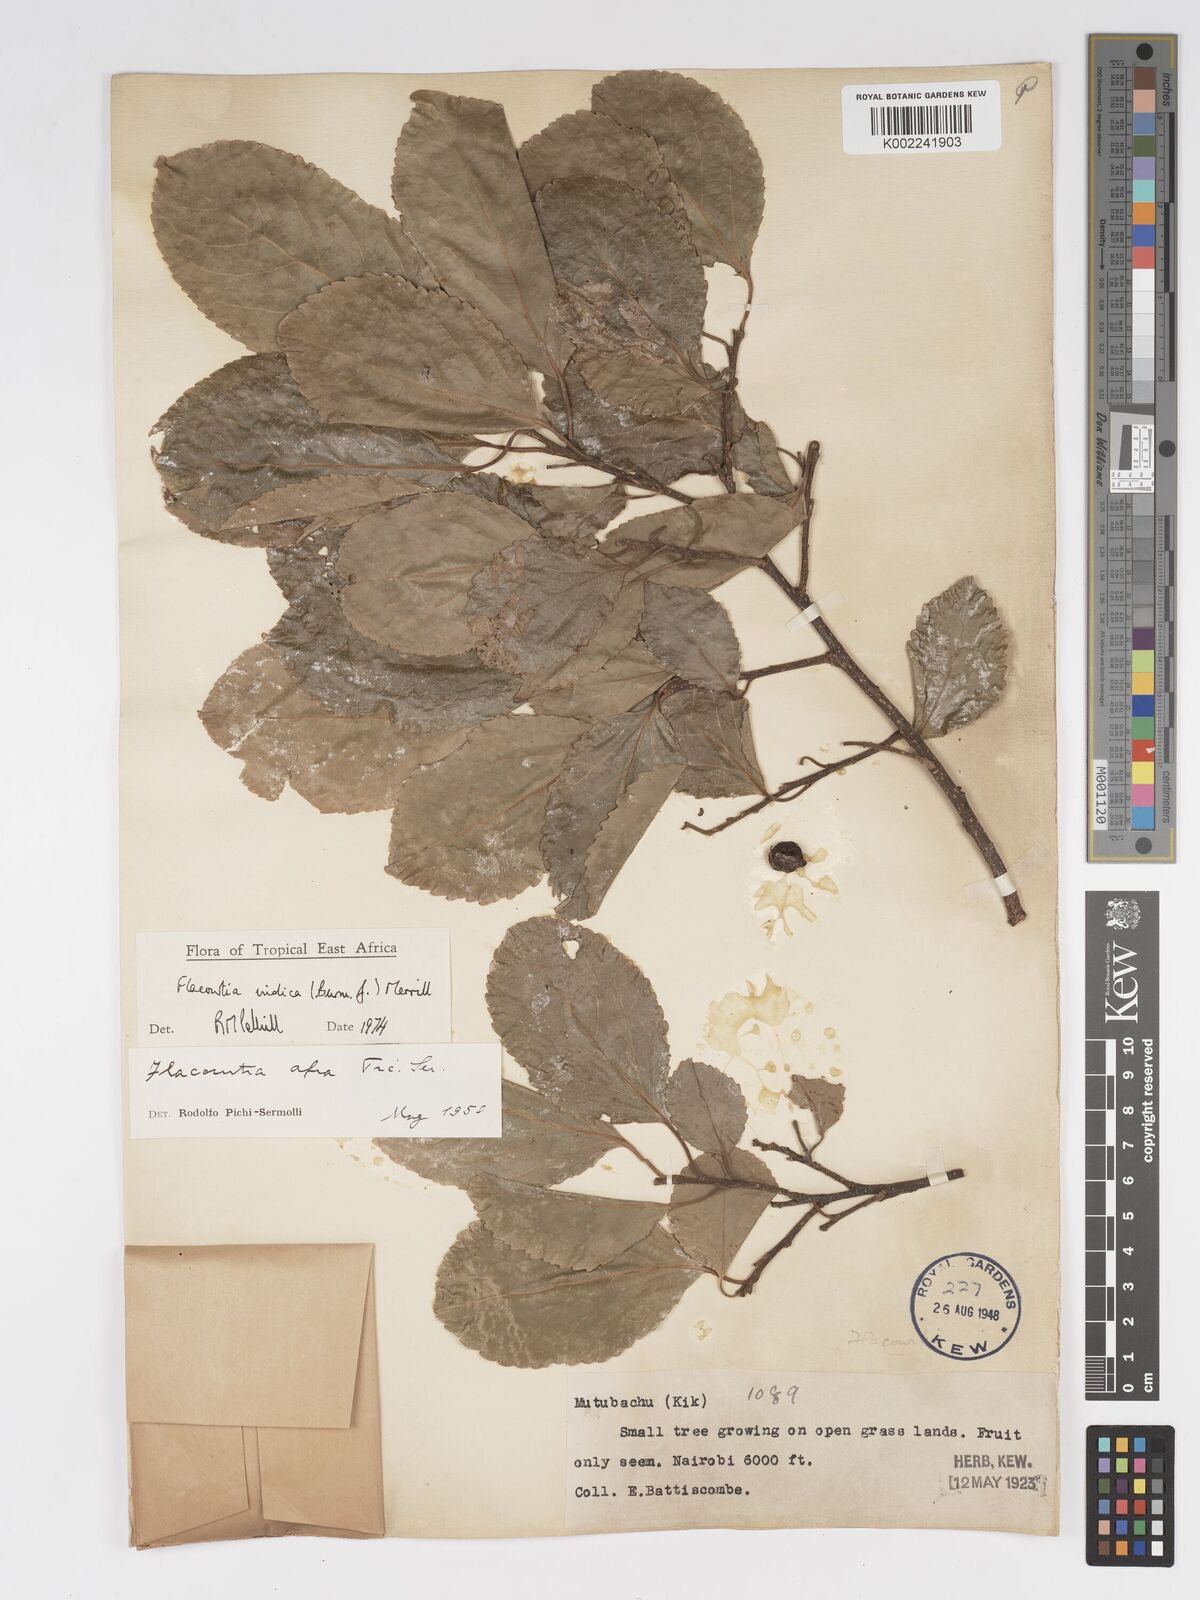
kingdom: Plantae
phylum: Tracheophyta
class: Magnoliopsida
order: Malpighiales
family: Salicaceae
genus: Flacourtia
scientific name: Flacourtia indica
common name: Governor's plum
